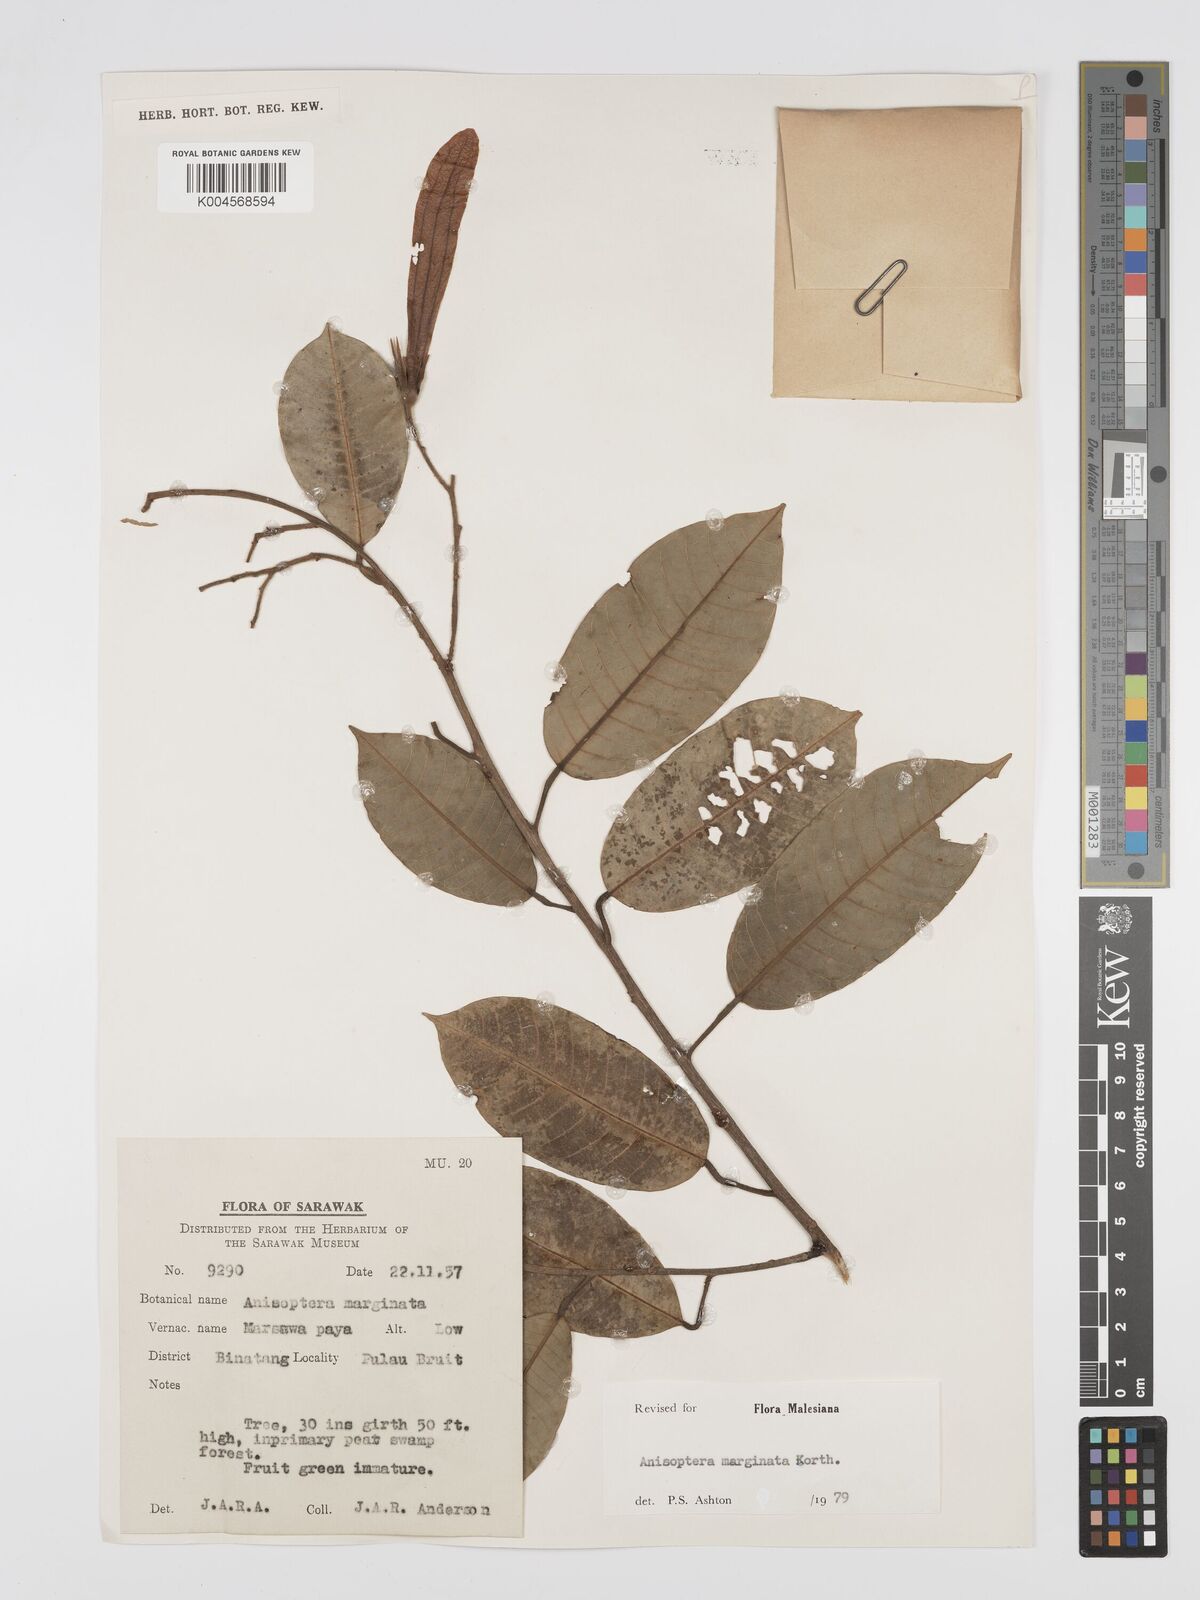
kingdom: Plantae
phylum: Tracheophyta
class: Magnoliopsida
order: Malvales
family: Dipterocarpaceae
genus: Anisoptera
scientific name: Anisoptera marginata
